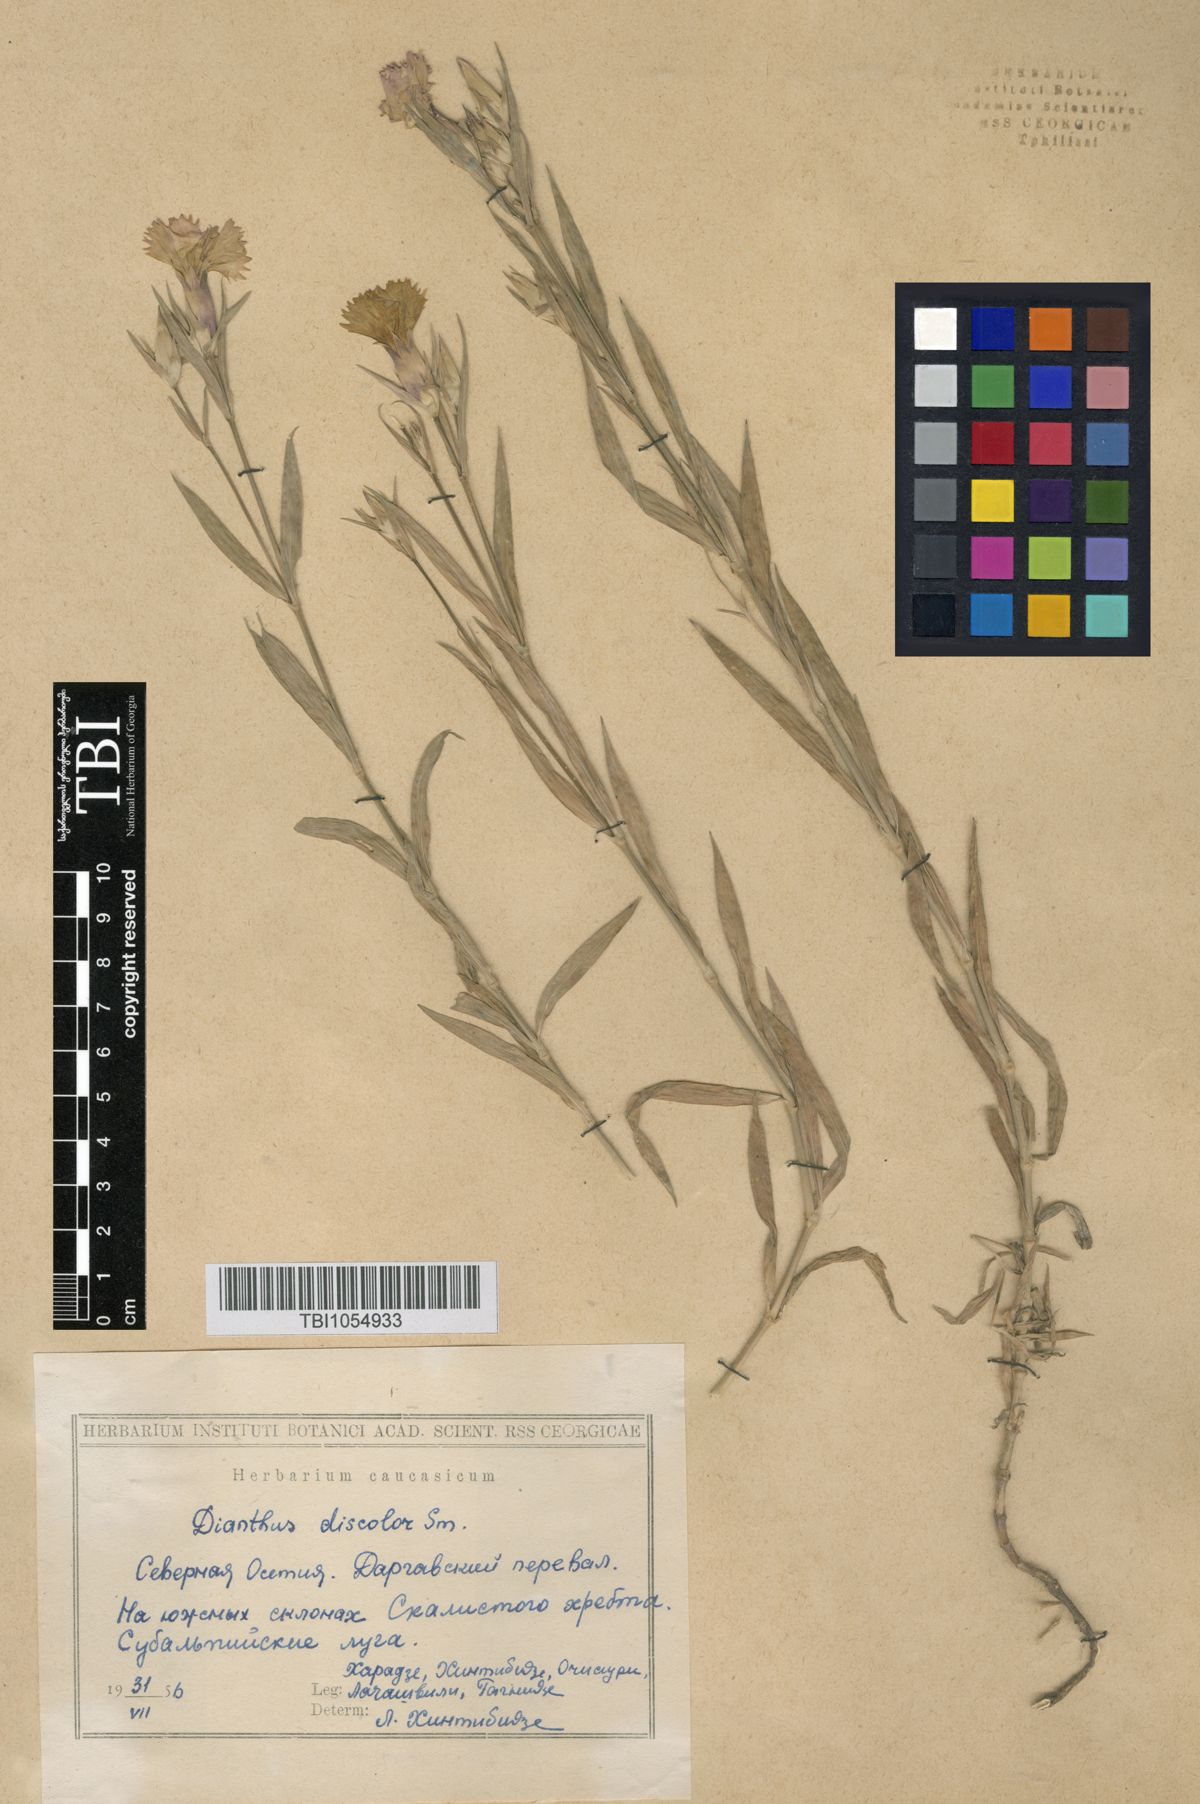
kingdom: Plantae
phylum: Tracheophyta
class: Magnoliopsida
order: Caryophyllales
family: Caryophyllaceae
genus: Dianthus
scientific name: Dianthus caucaseus
